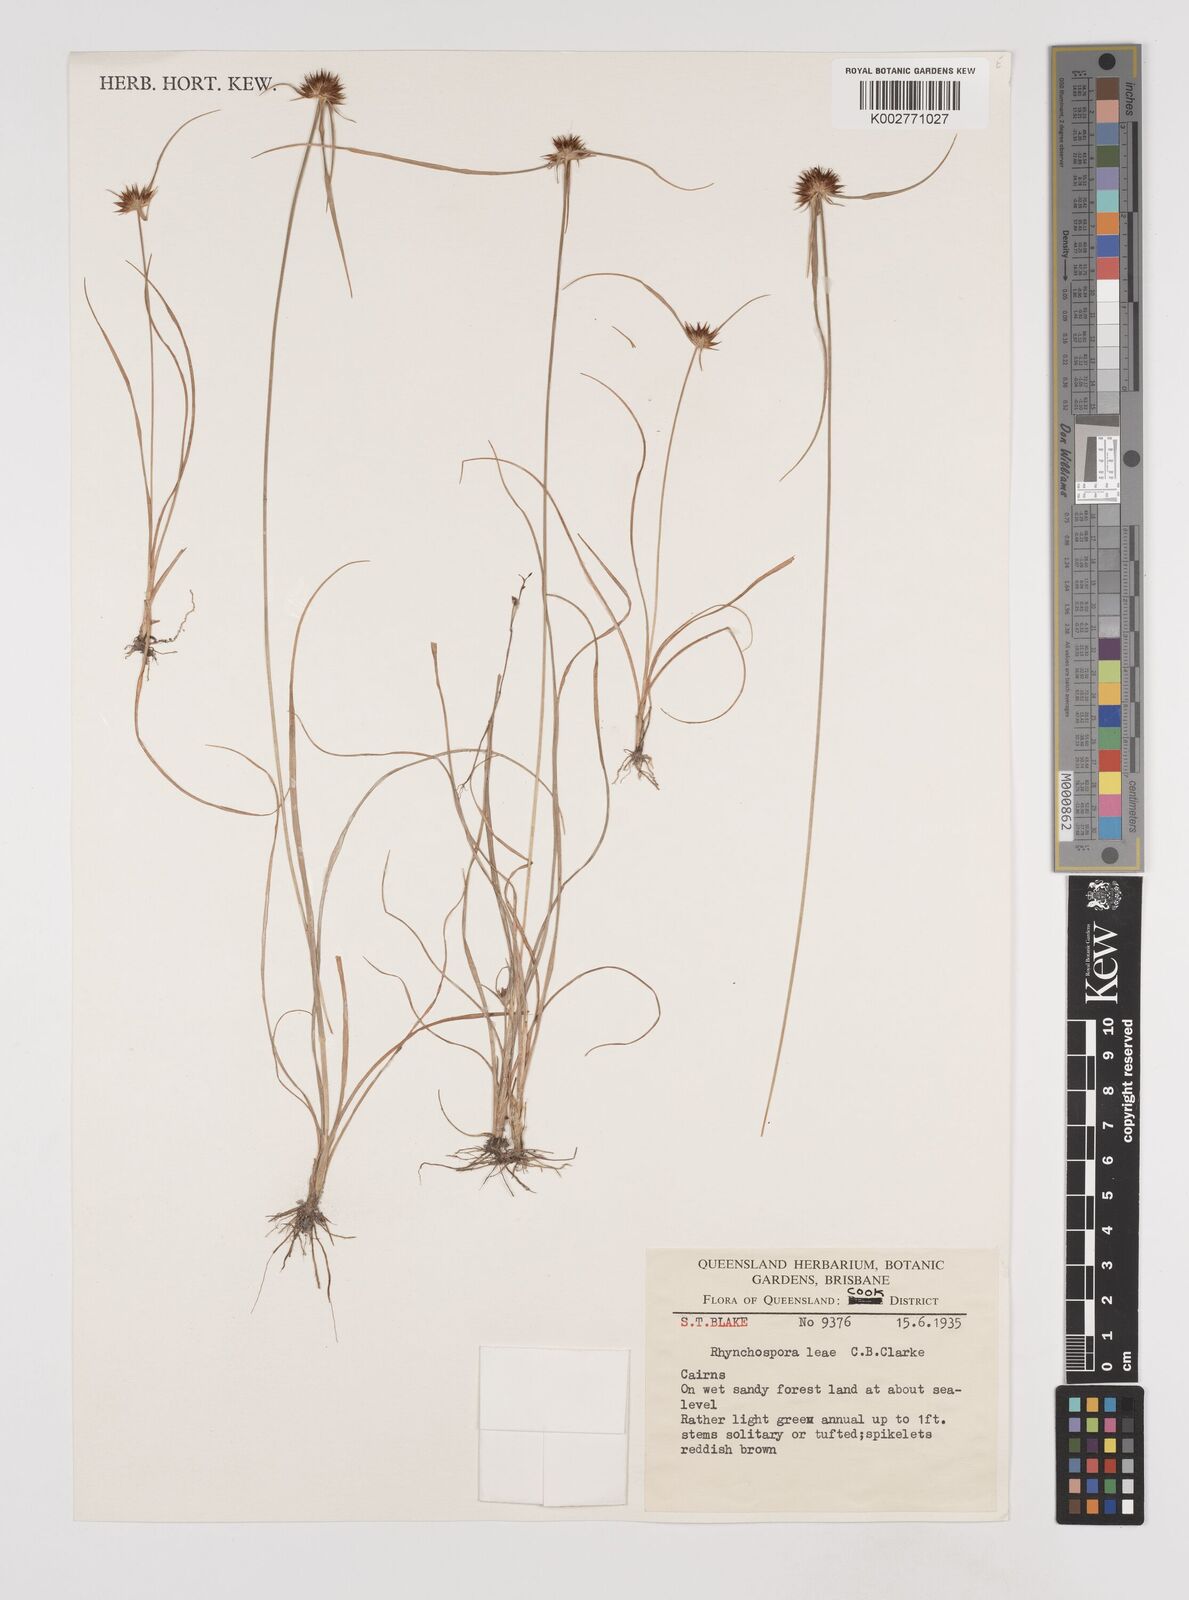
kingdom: Plantae
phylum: Tracheophyta
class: Liliopsida
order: Poales
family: Cyperaceae
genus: Rhynchospora
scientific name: Rhynchospora leae
